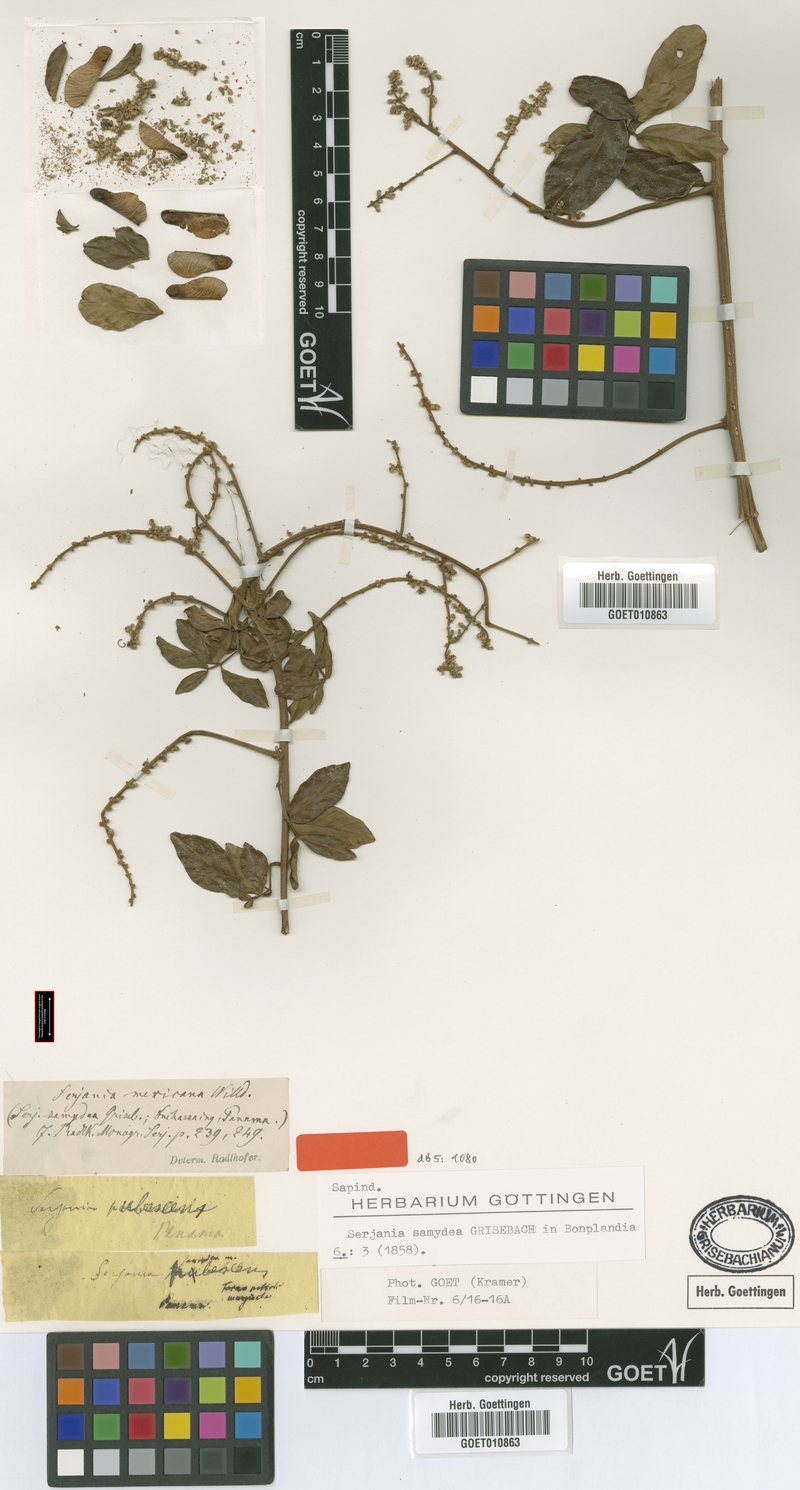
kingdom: Plantae
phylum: Tracheophyta
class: Magnoliopsida
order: Sapindales
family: Sapindaceae
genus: Serjania
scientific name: Serjania mexicana
